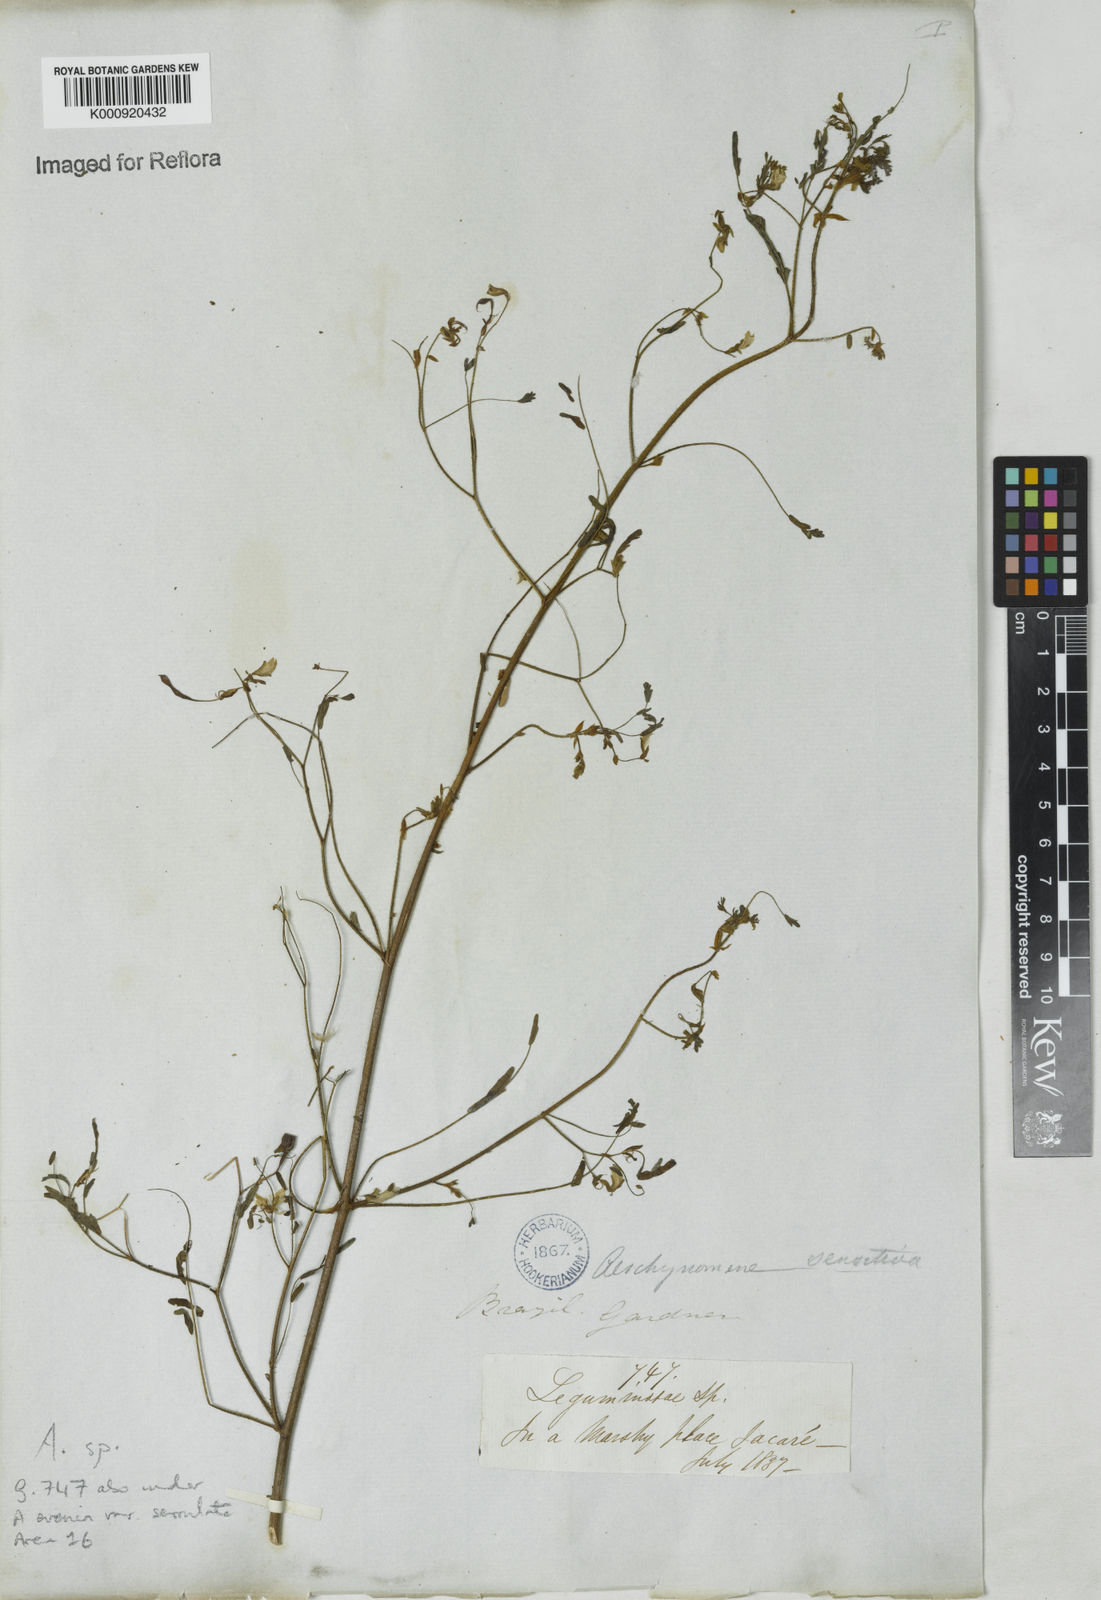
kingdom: Plantae
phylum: Tracheophyta
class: Magnoliopsida
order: Fabales
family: Fabaceae
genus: Aeschynomene
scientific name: Aeschynomene
